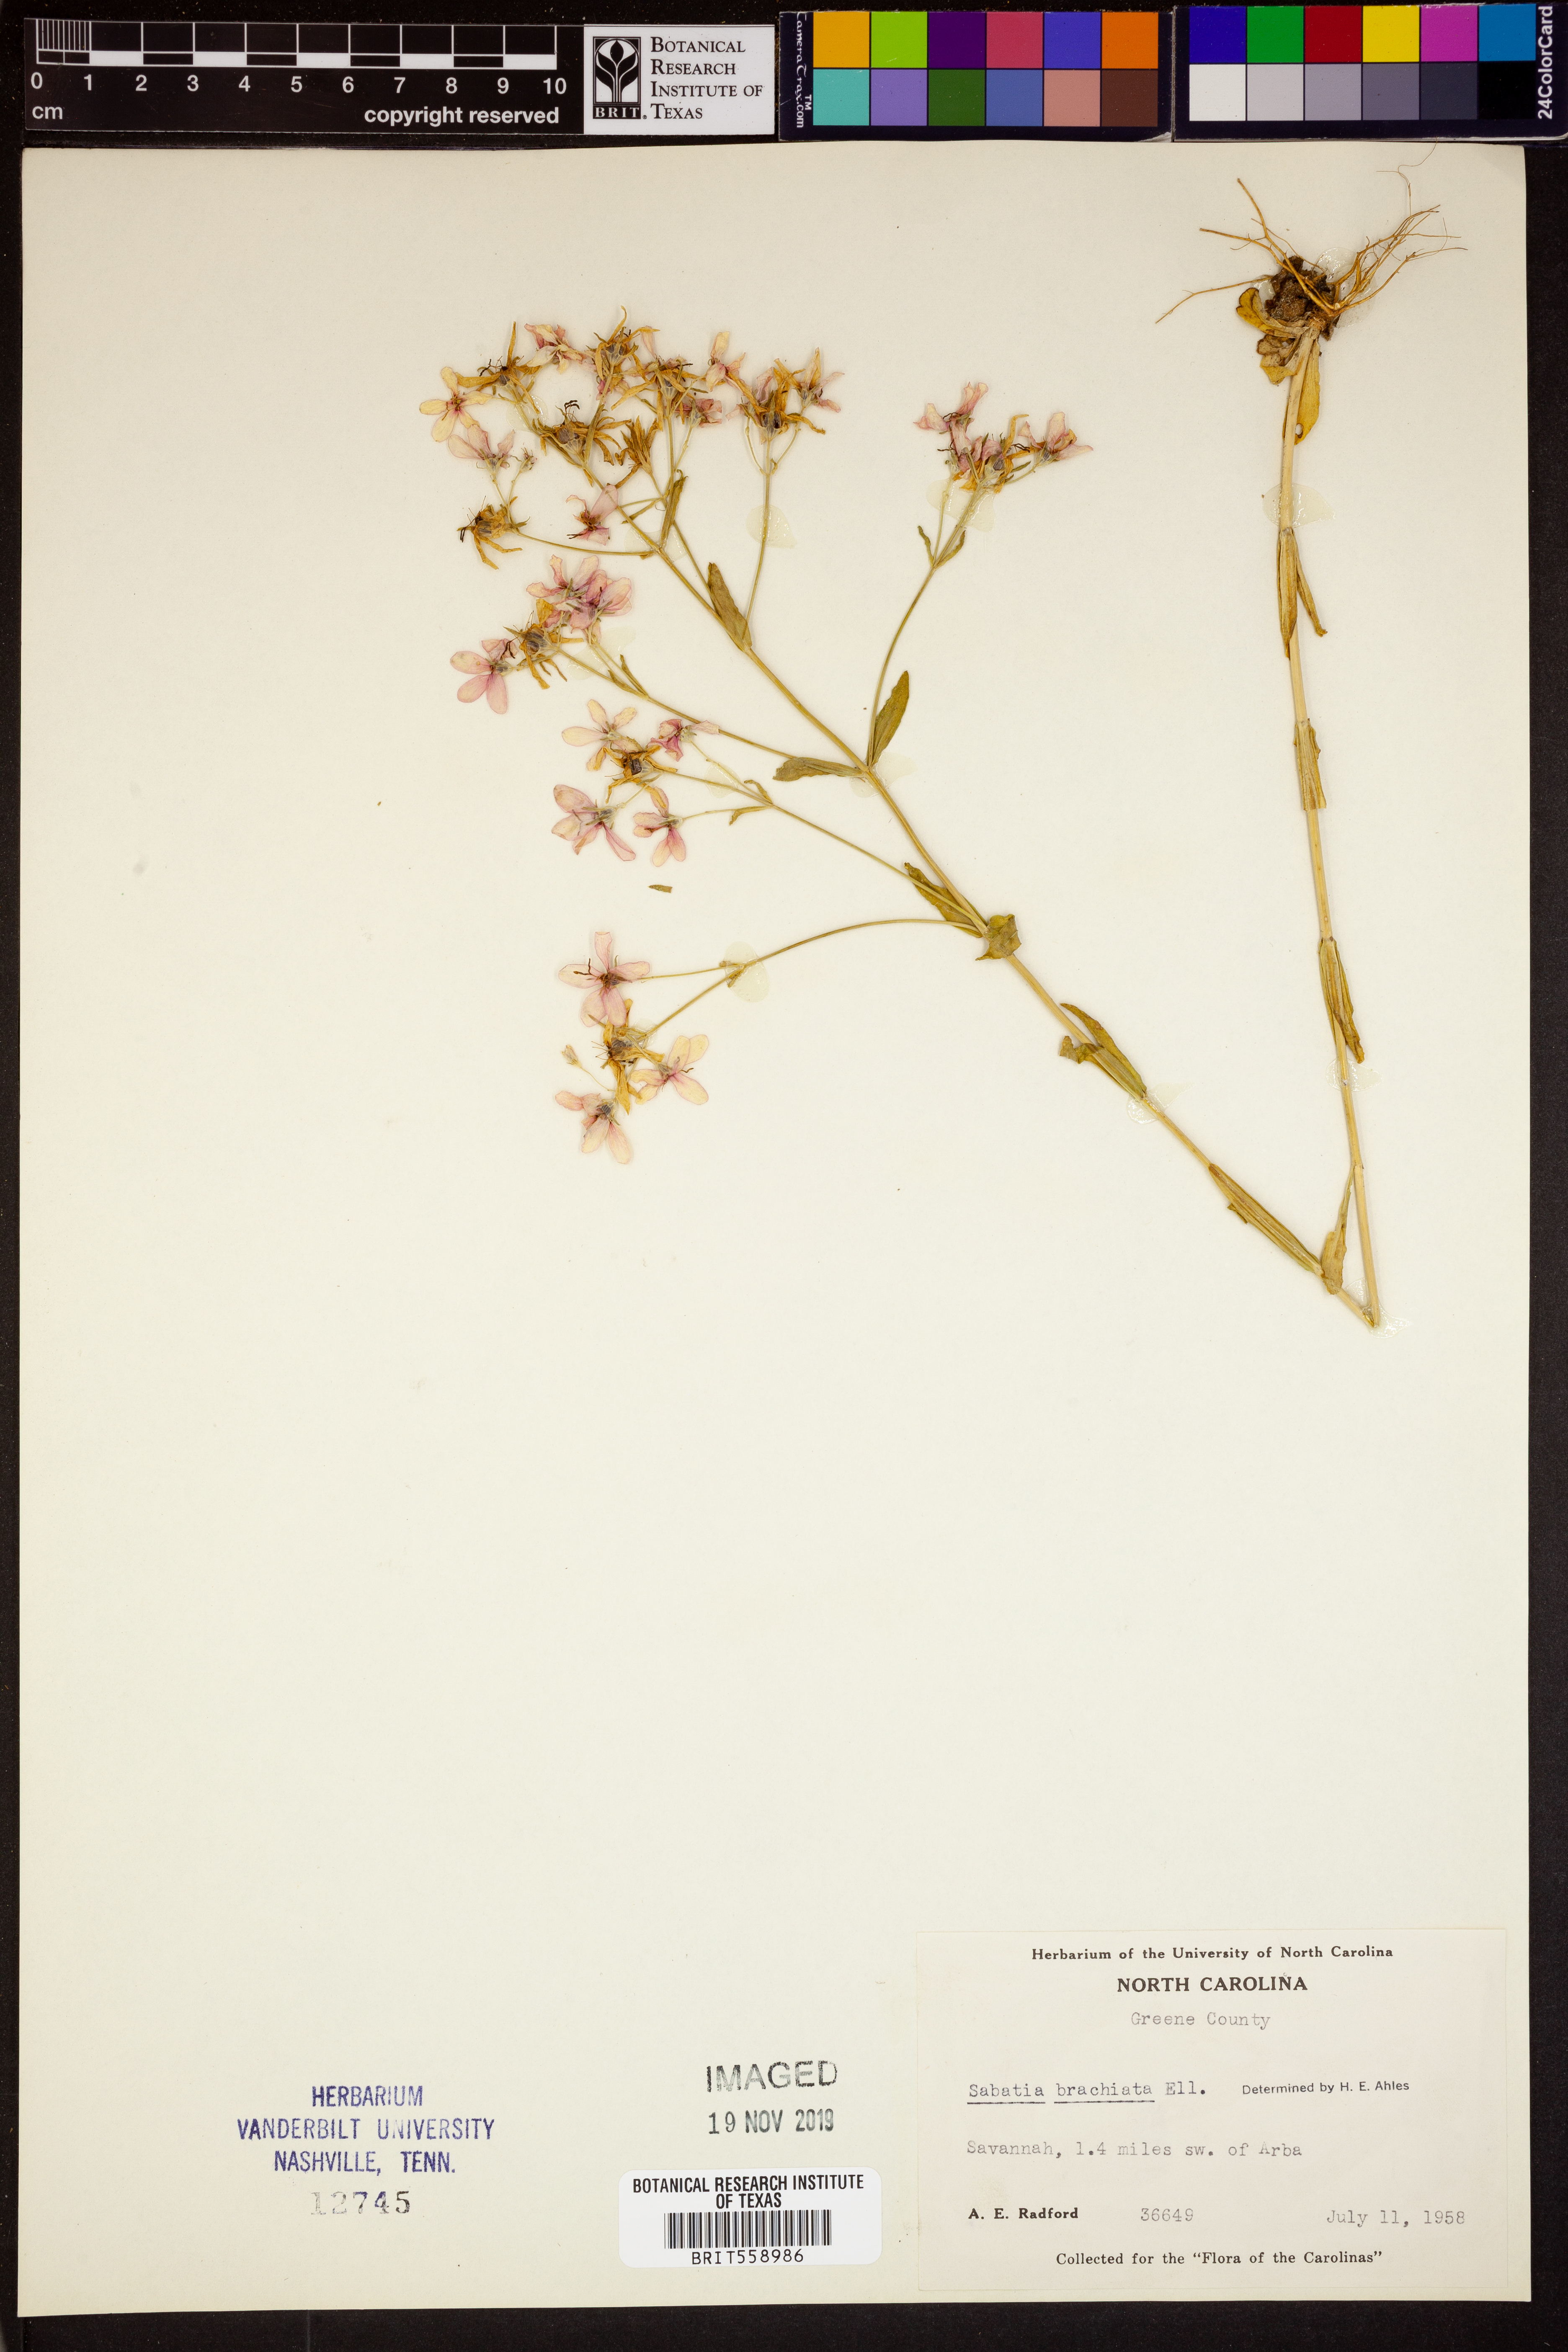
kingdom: Plantae
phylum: Tracheophyta
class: Magnoliopsida
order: Gentianales
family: Gentianaceae
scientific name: Gentianaceae
